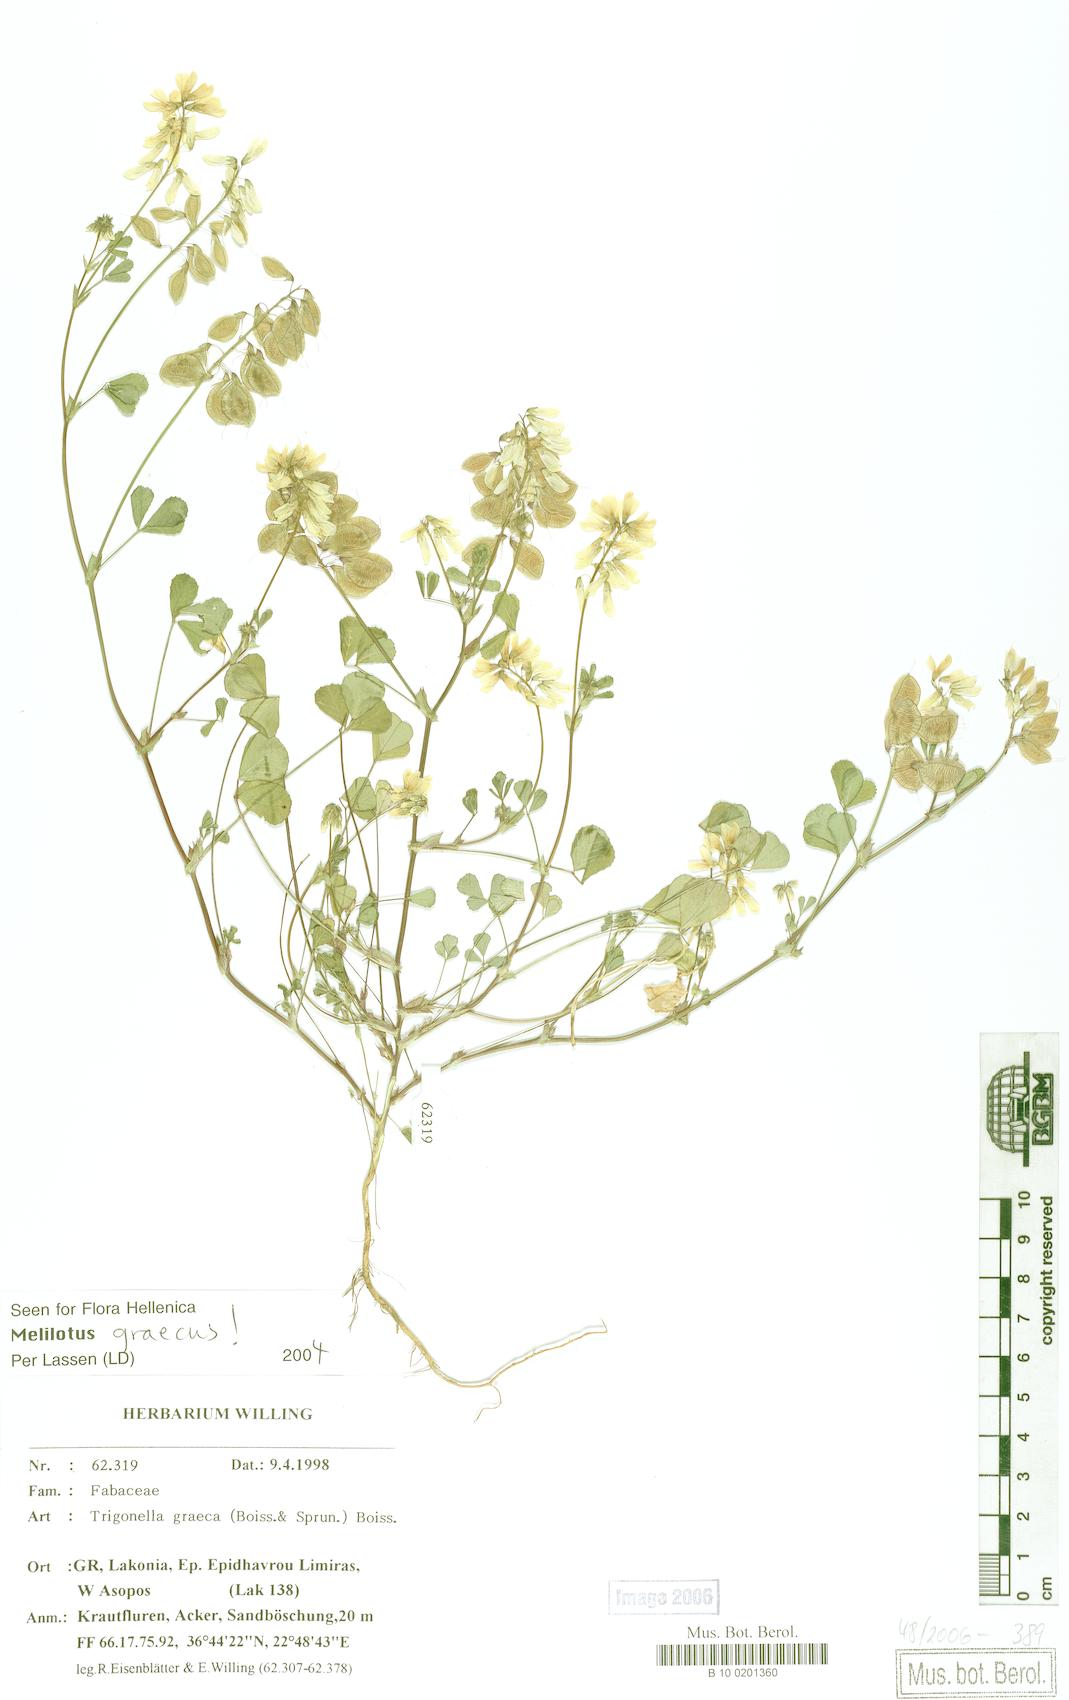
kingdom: Plantae
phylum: Tracheophyta
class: Magnoliopsida
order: Fabales
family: Fabaceae
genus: Trigonella
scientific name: Trigonella graeca
